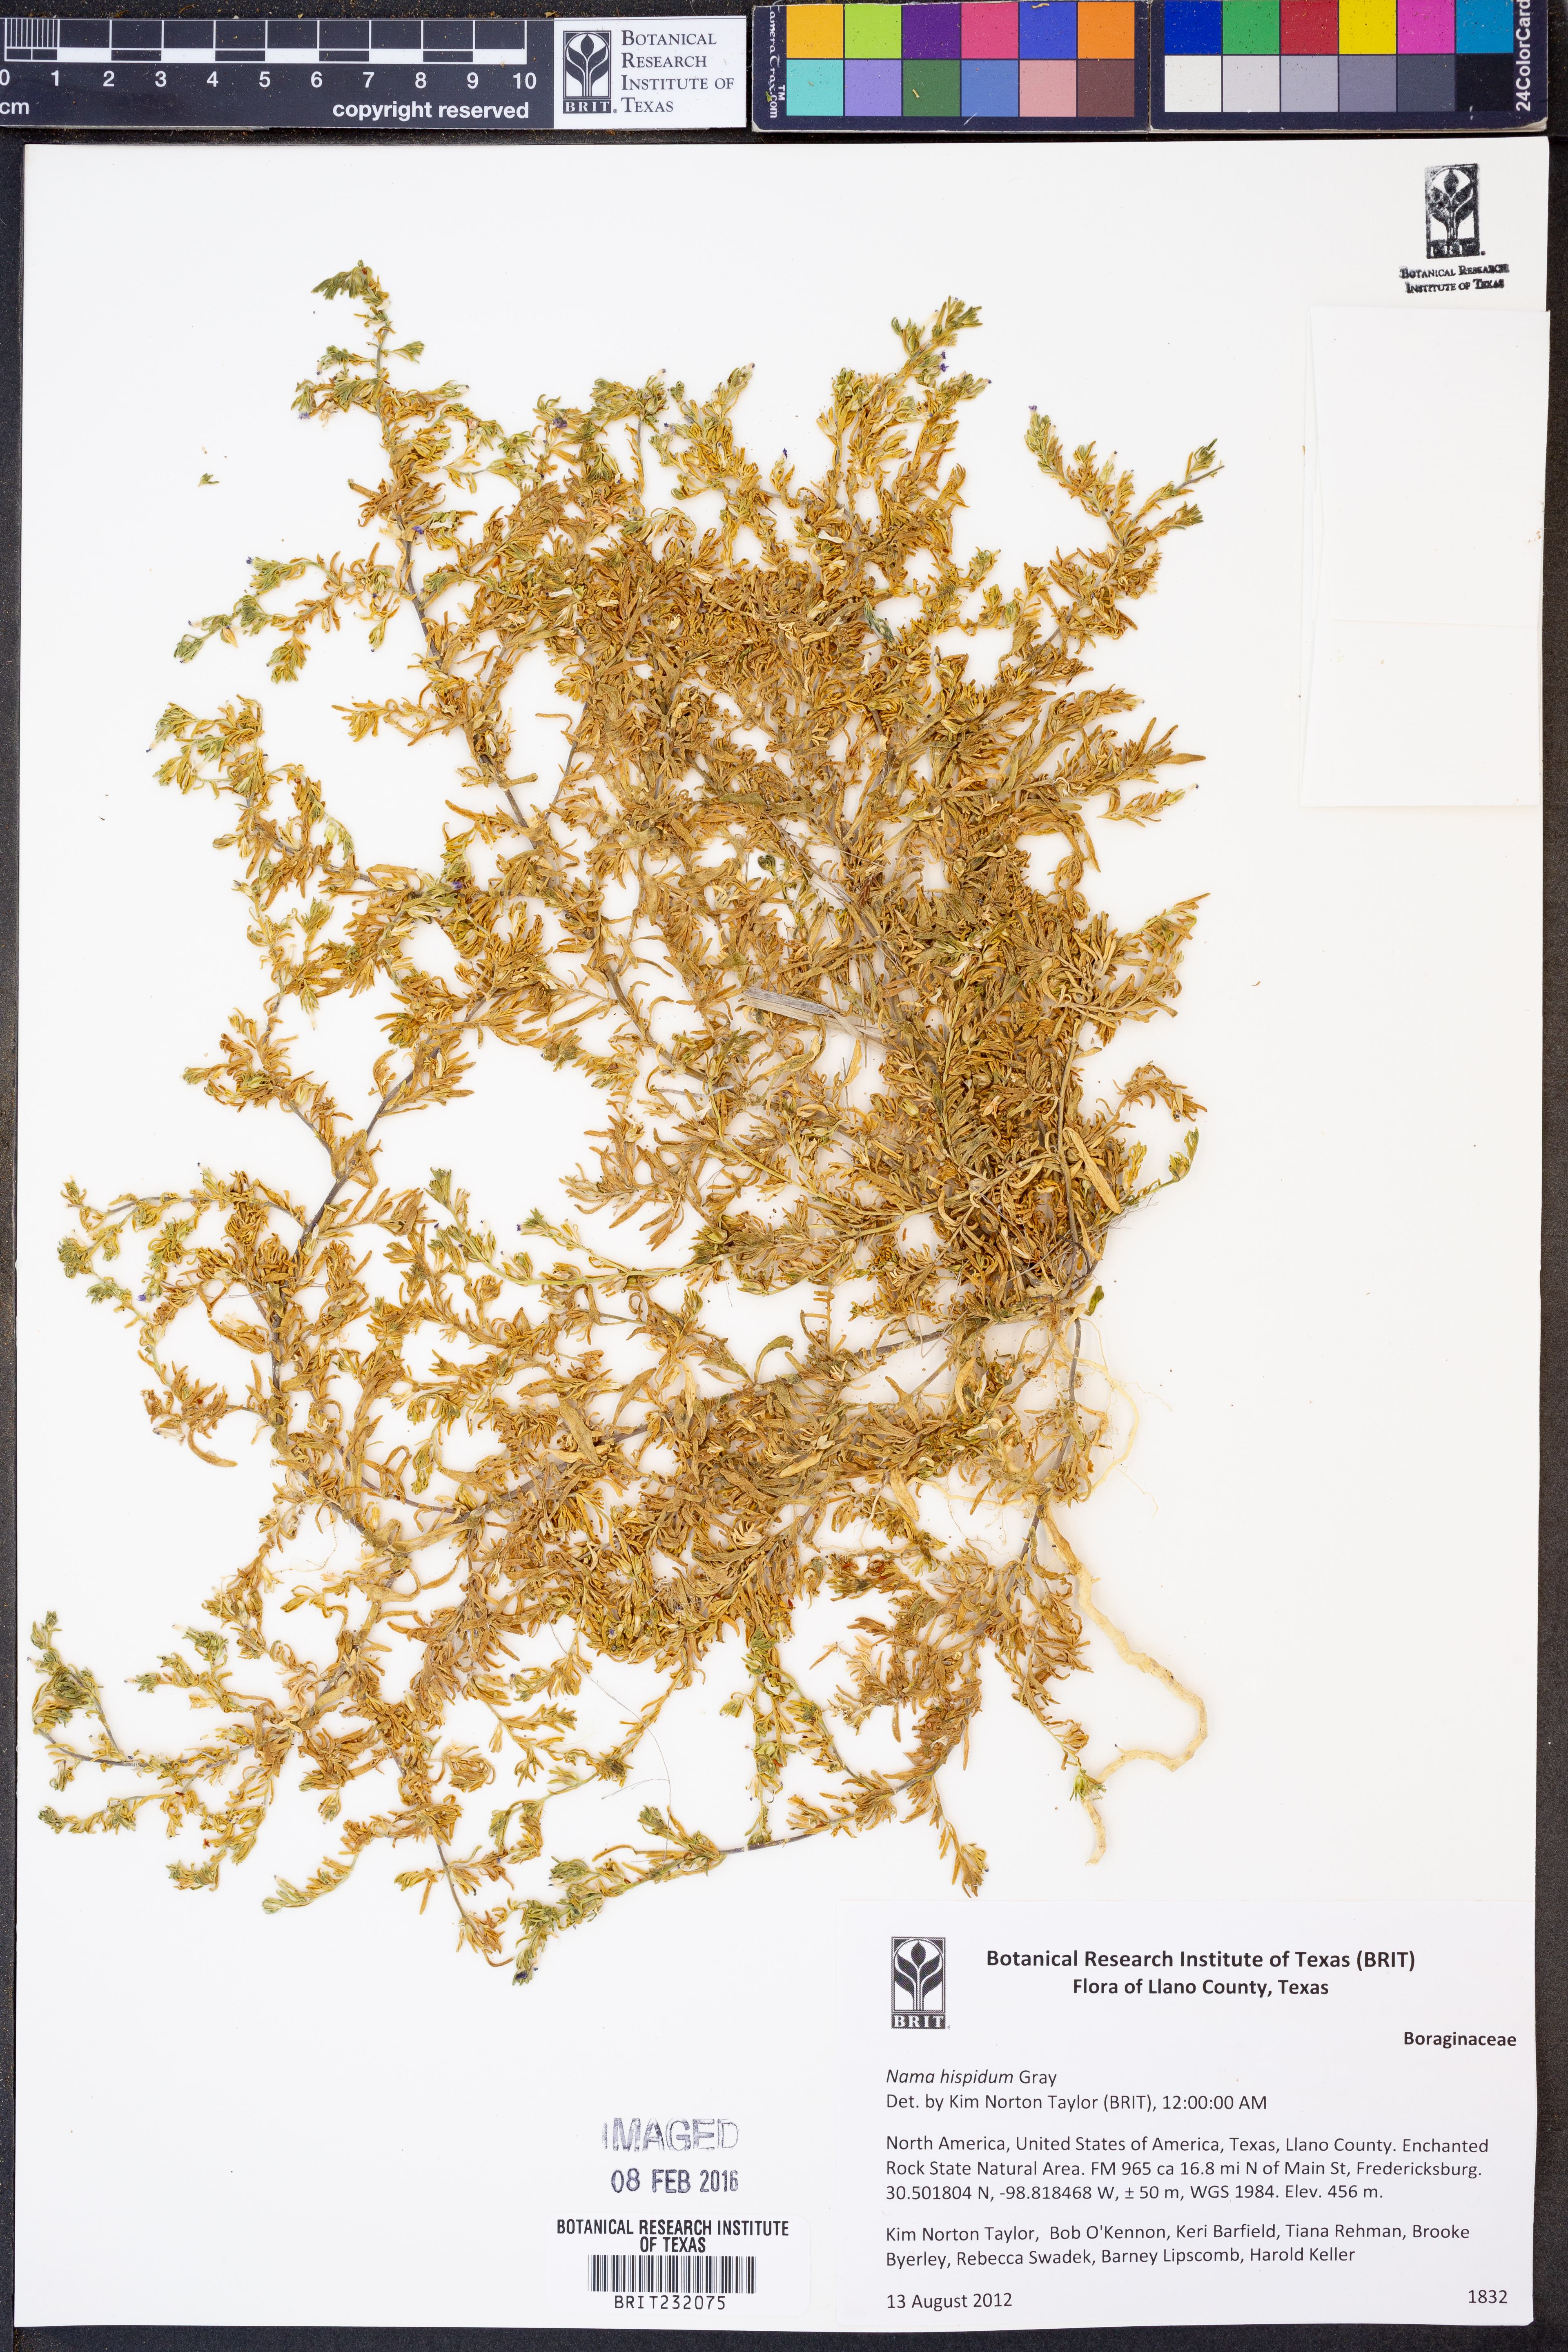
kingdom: Plantae
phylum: Tracheophyta
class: Magnoliopsida
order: Boraginales
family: Namaceae
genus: Nama
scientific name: Nama hispida
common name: Bristly nama
